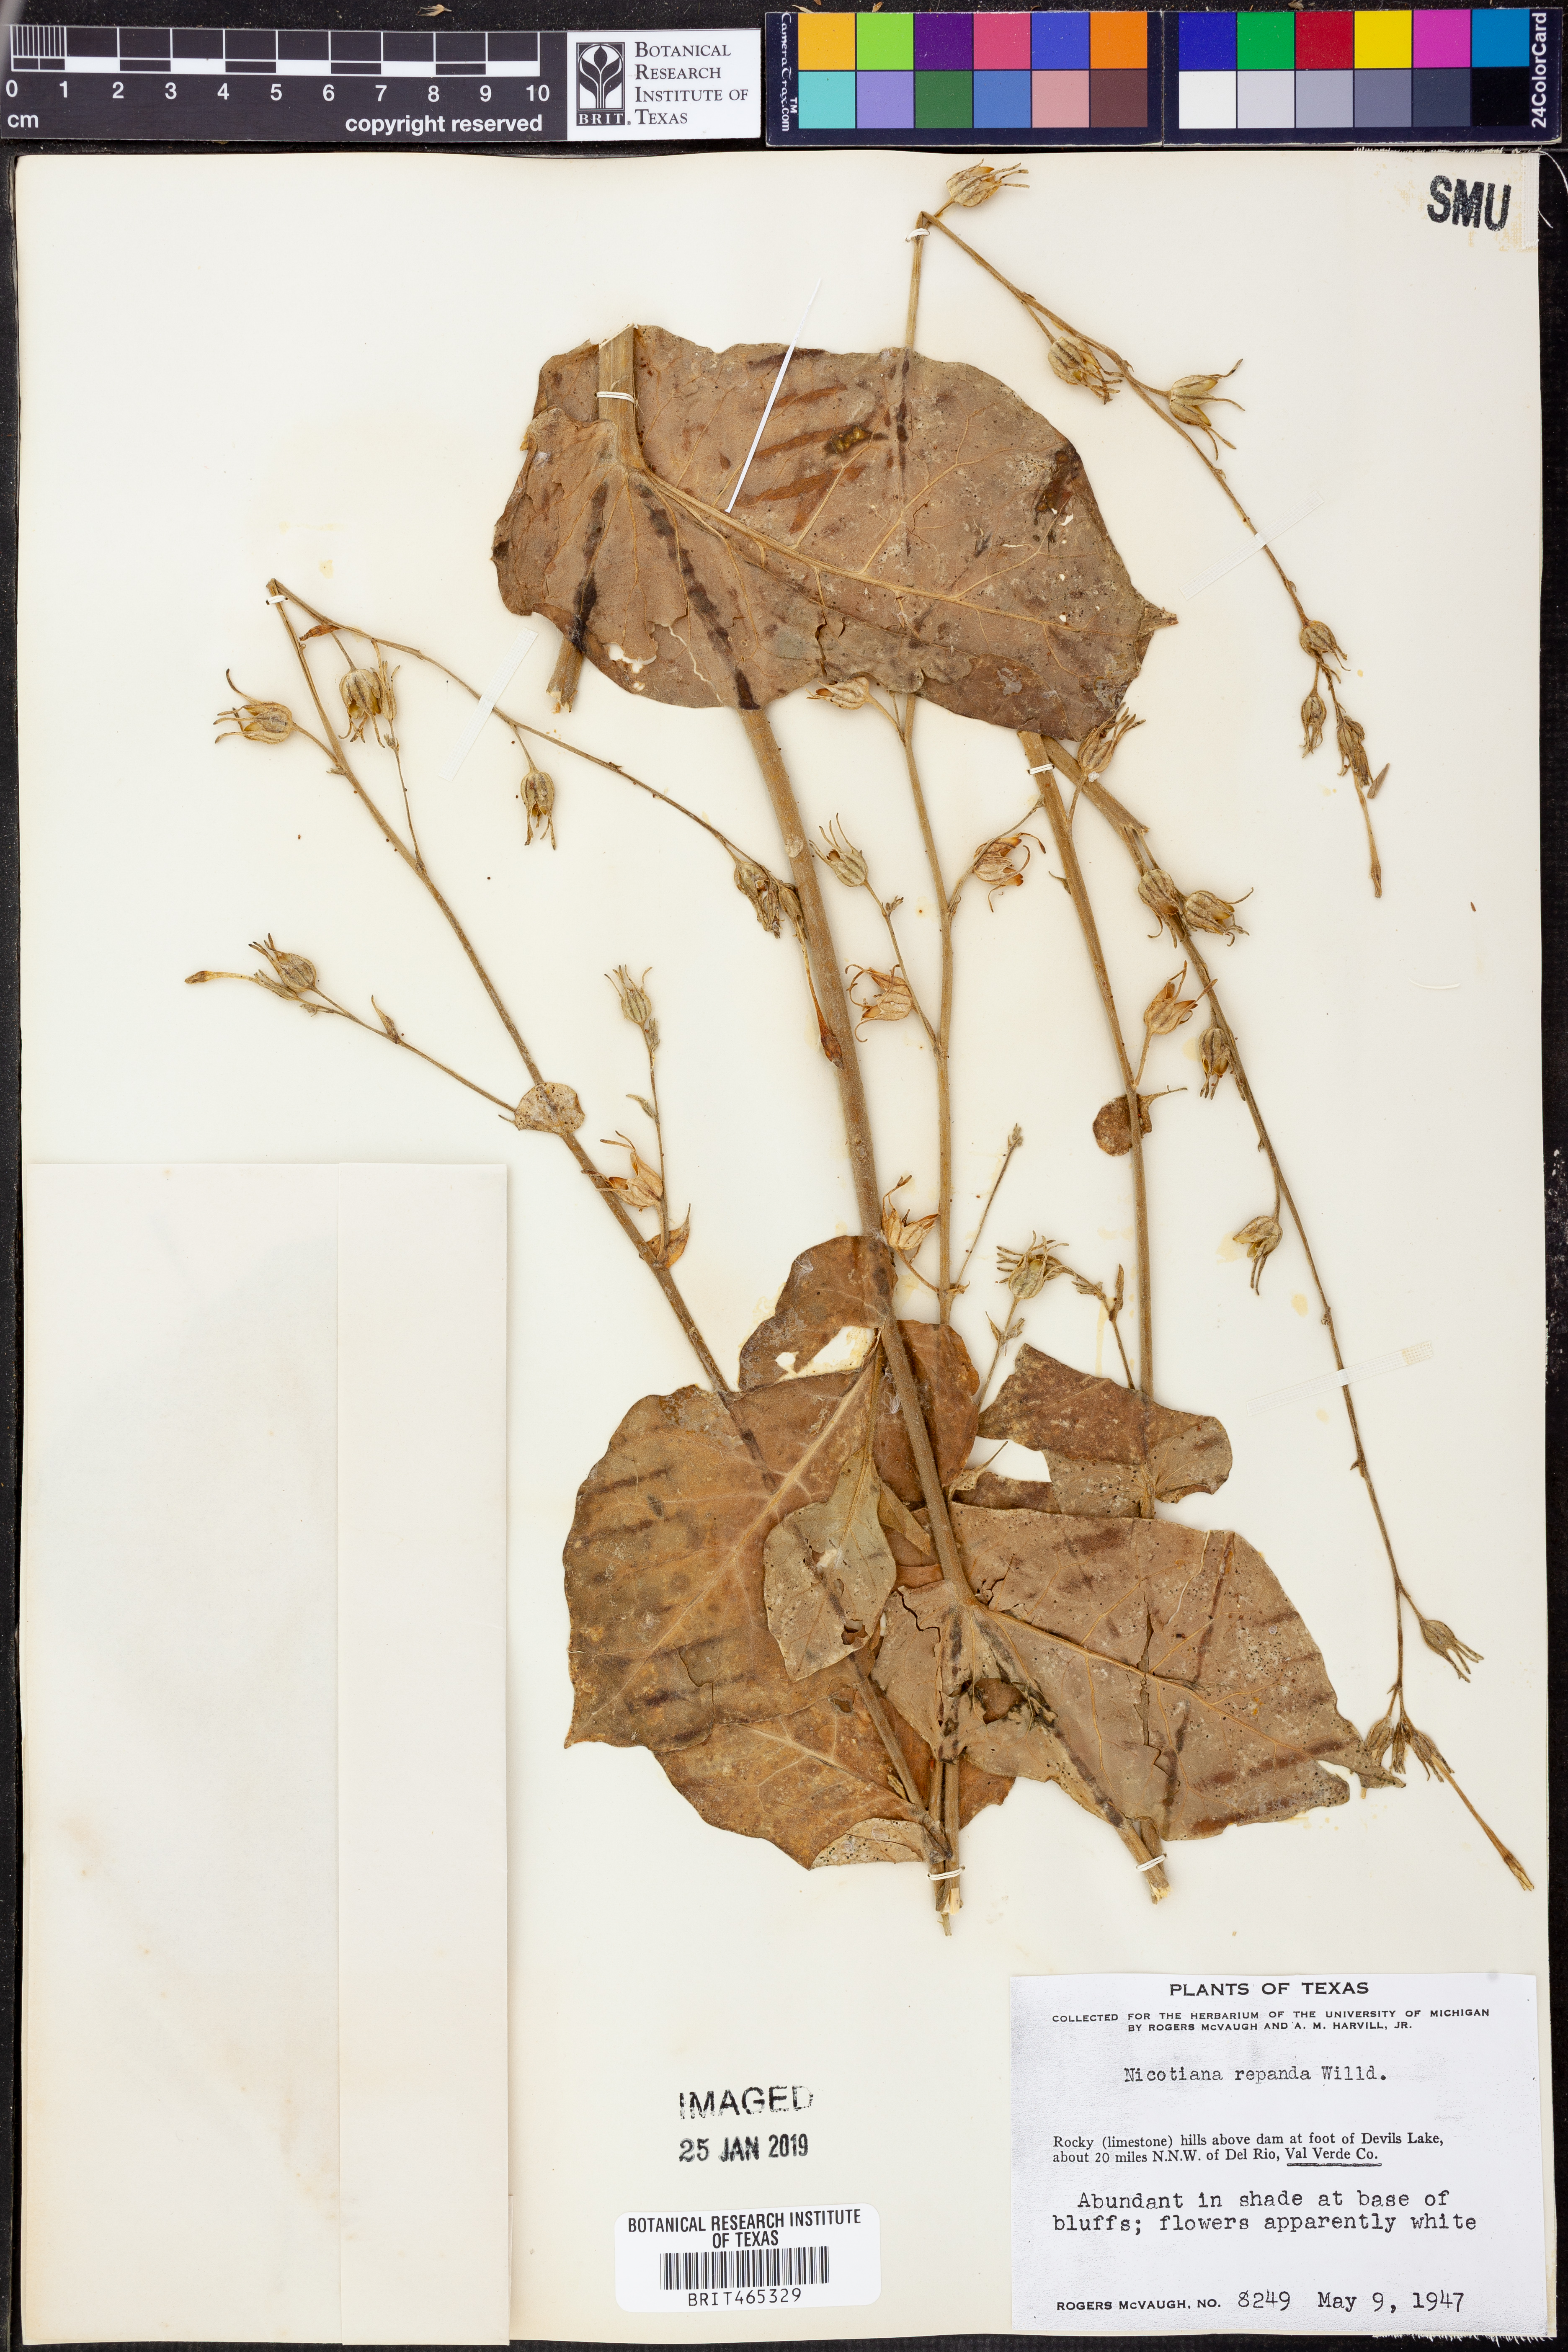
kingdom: Plantae
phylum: Tracheophyta
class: Magnoliopsida
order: Solanales
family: Solanaceae
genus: Nicotiana
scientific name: Nicotiana repanda
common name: Fiddle-leaf tobacco
